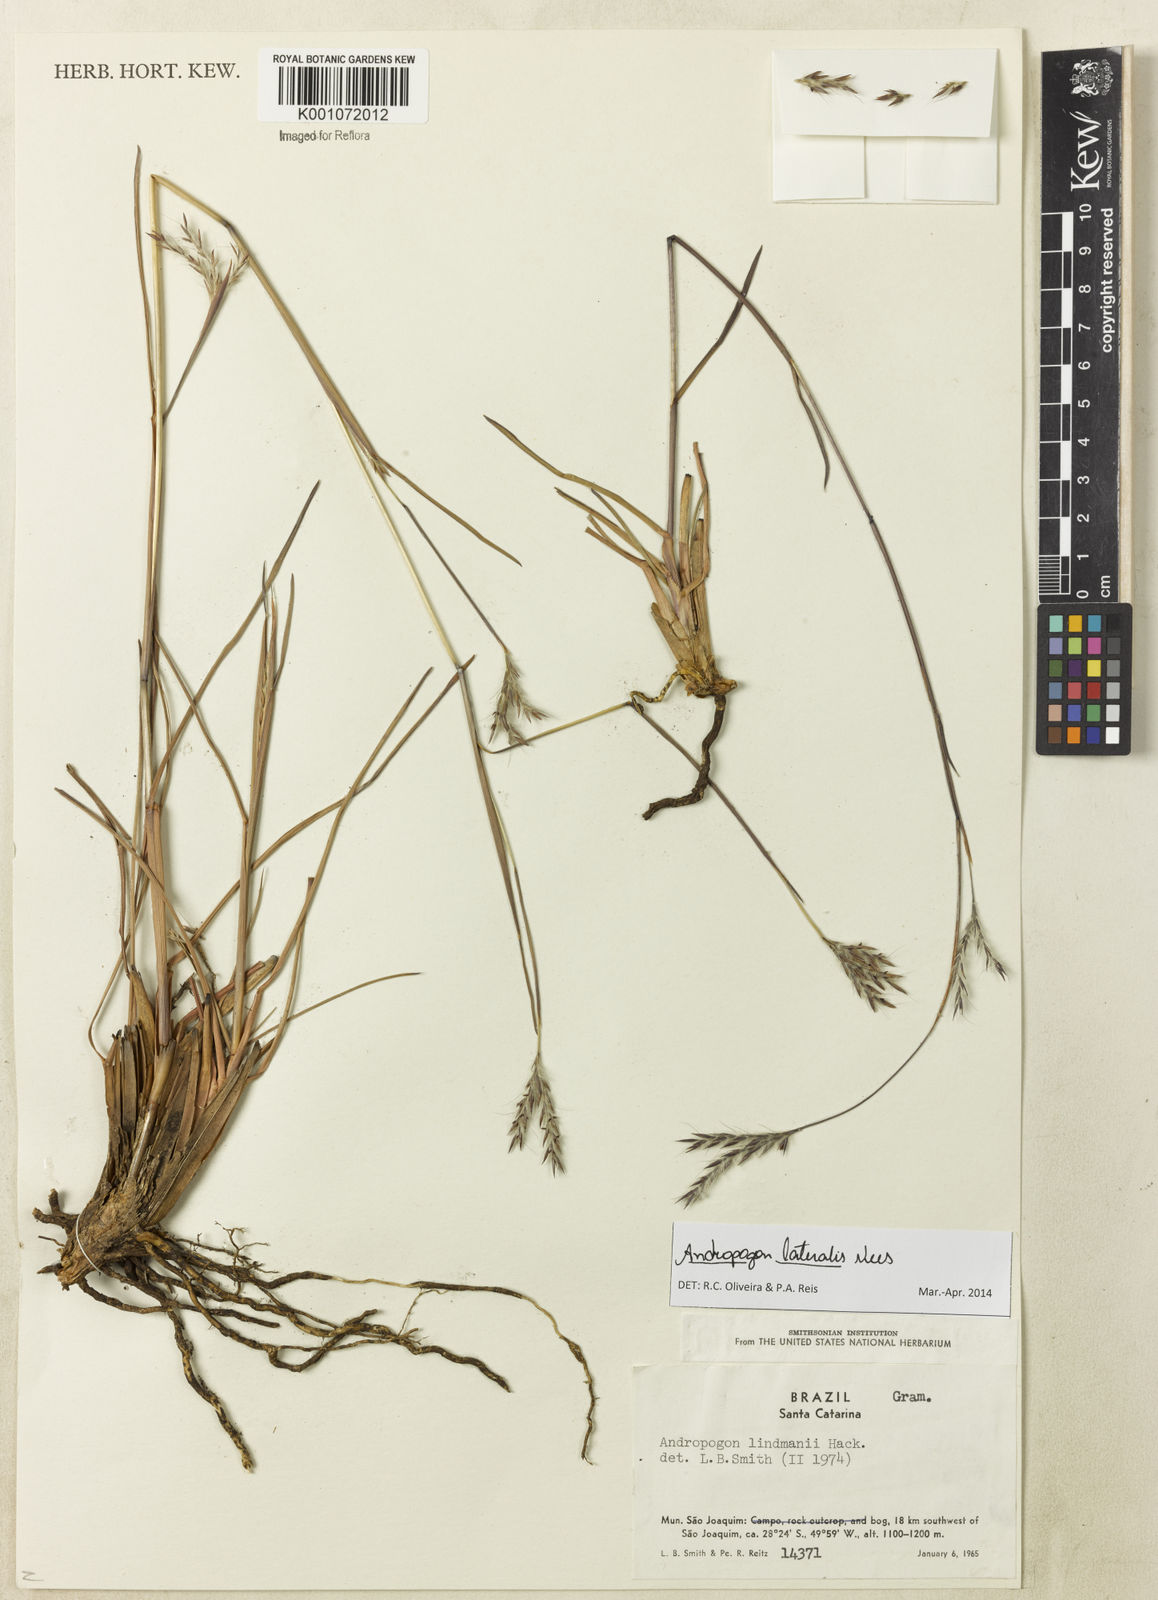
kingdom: Plantae
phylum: Tracheophyta
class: Liliopsida
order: Poales
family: Poaceae
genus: Andropogon
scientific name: Andropogon lateralis
